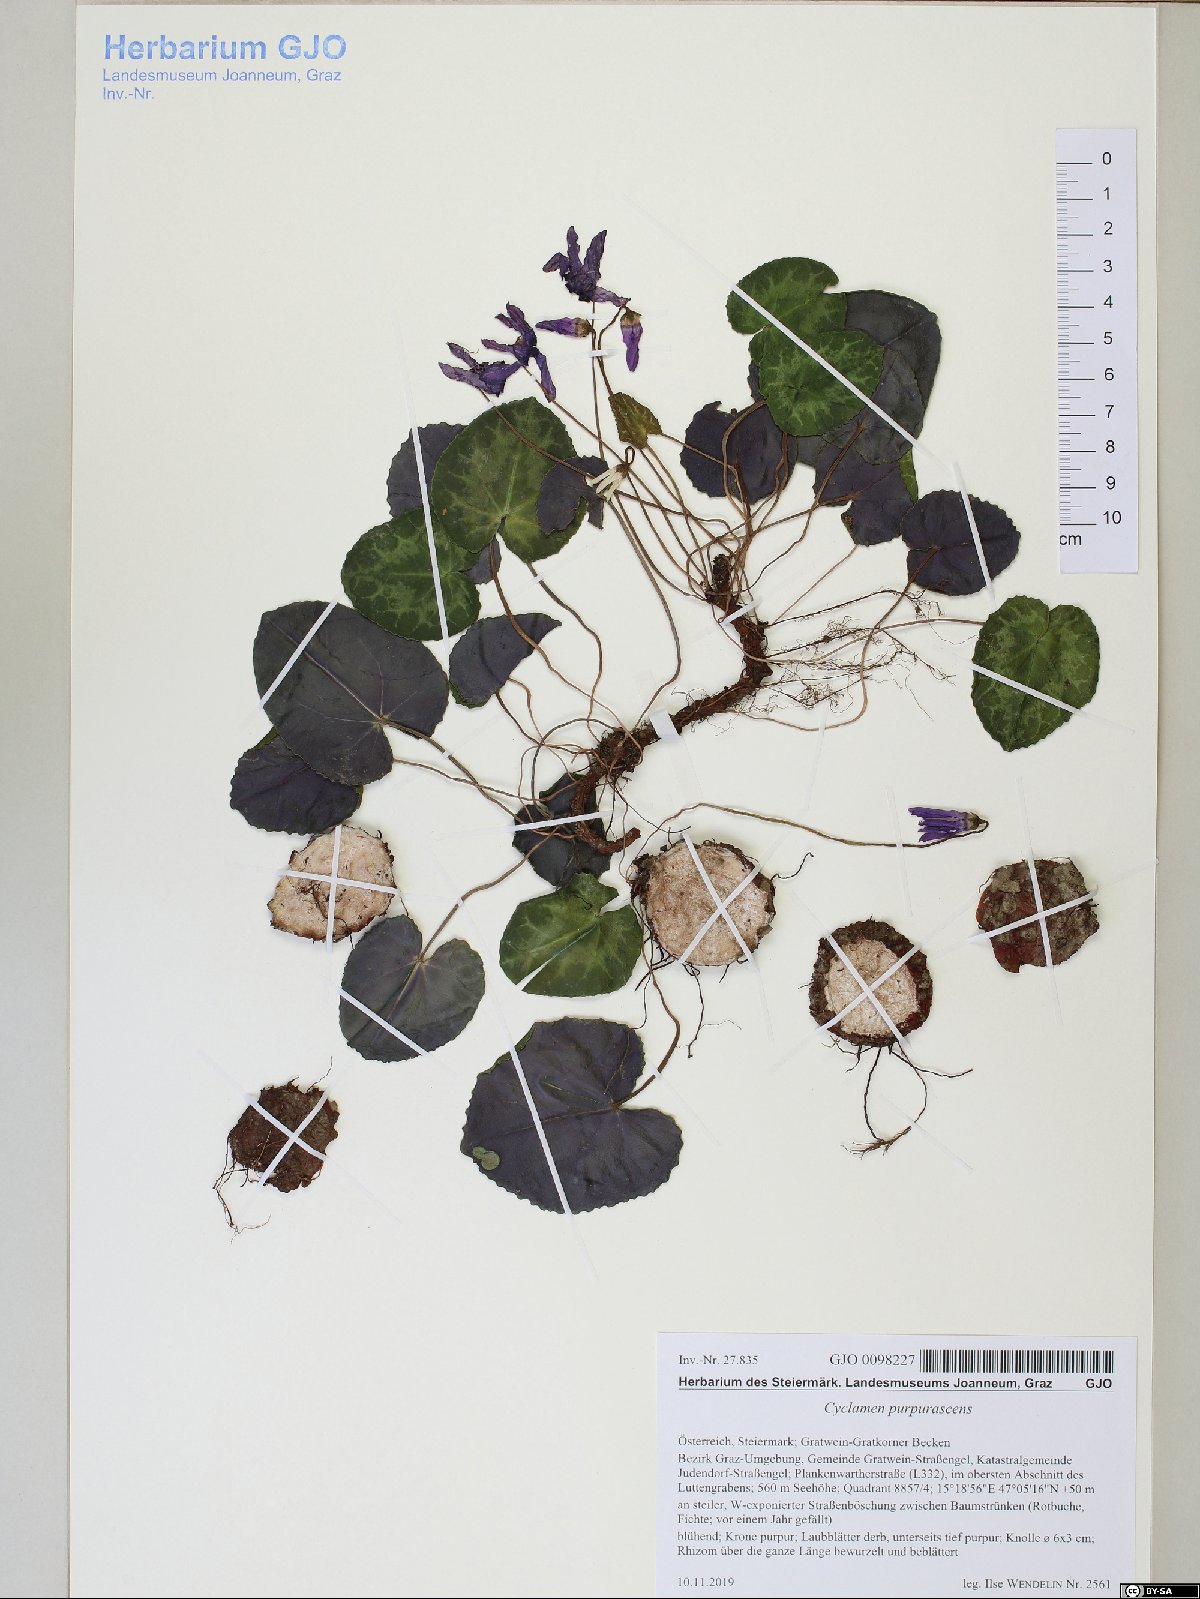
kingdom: Plantae
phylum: Tracheophyta
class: Magnoliopsida
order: Ericales
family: Primulaceae
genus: Cyclamen
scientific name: Cyclamen purpurascens
